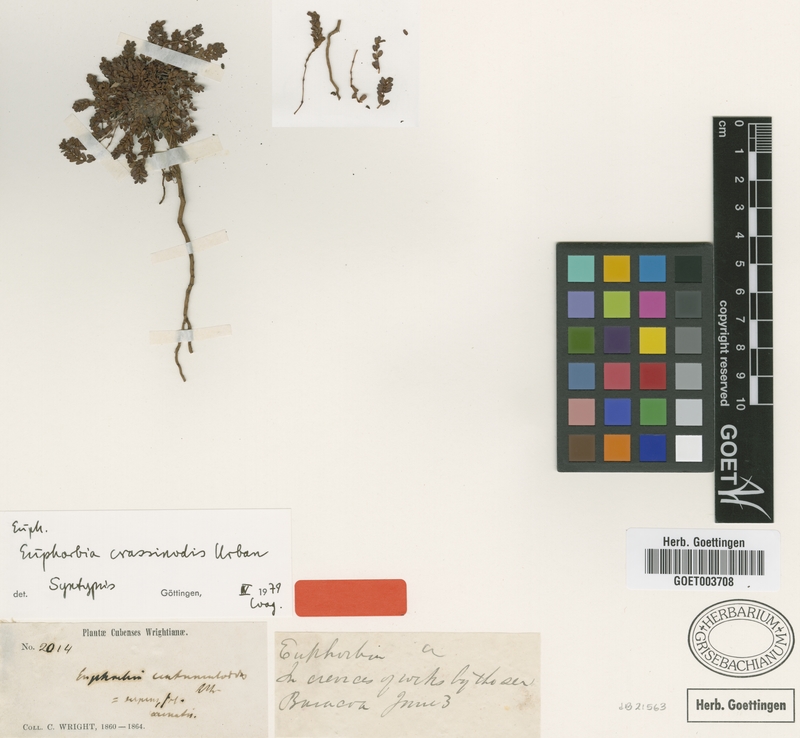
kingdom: Plantae
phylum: Tracheophyta
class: Magnoliopsida
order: Malpighiales
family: Euphorbiaceae
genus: Euphorbia
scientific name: Euphorbia crassinodis
